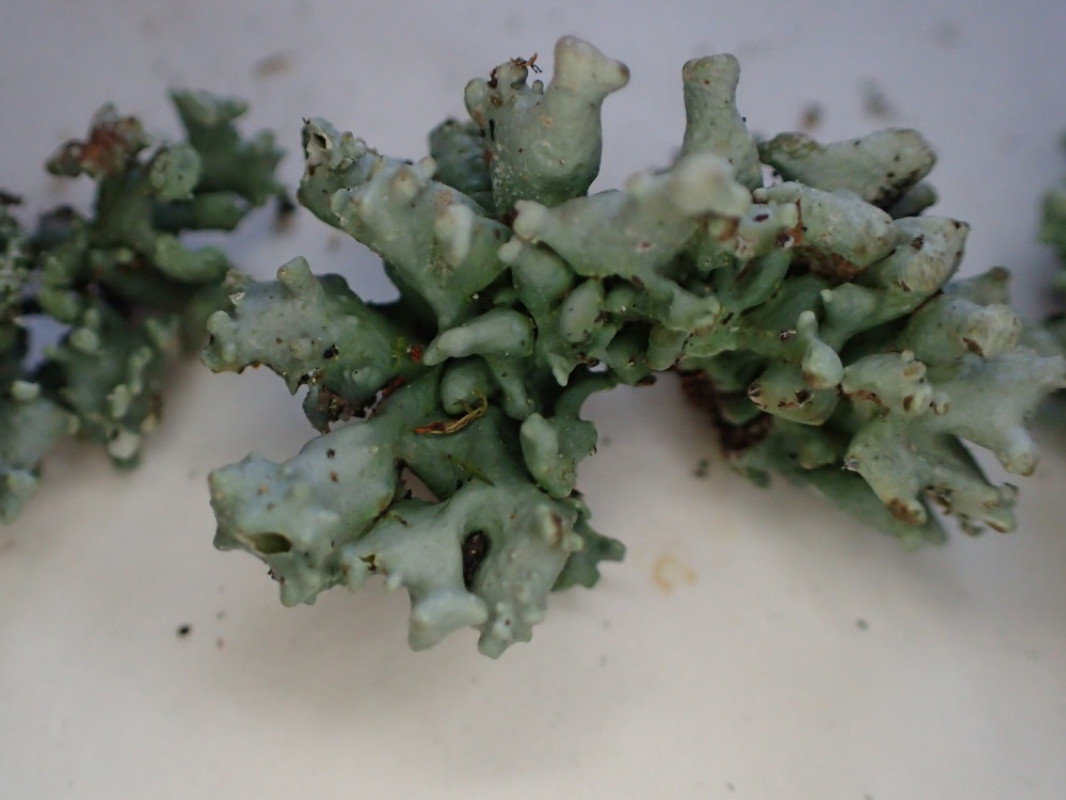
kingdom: Fungi
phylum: Ascomycota
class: Lecanoromycetes
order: Lecanorales
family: Parmeliaceae
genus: Hypogymnia
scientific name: Hypogymnia tubulosa
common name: finger-kvistlav
